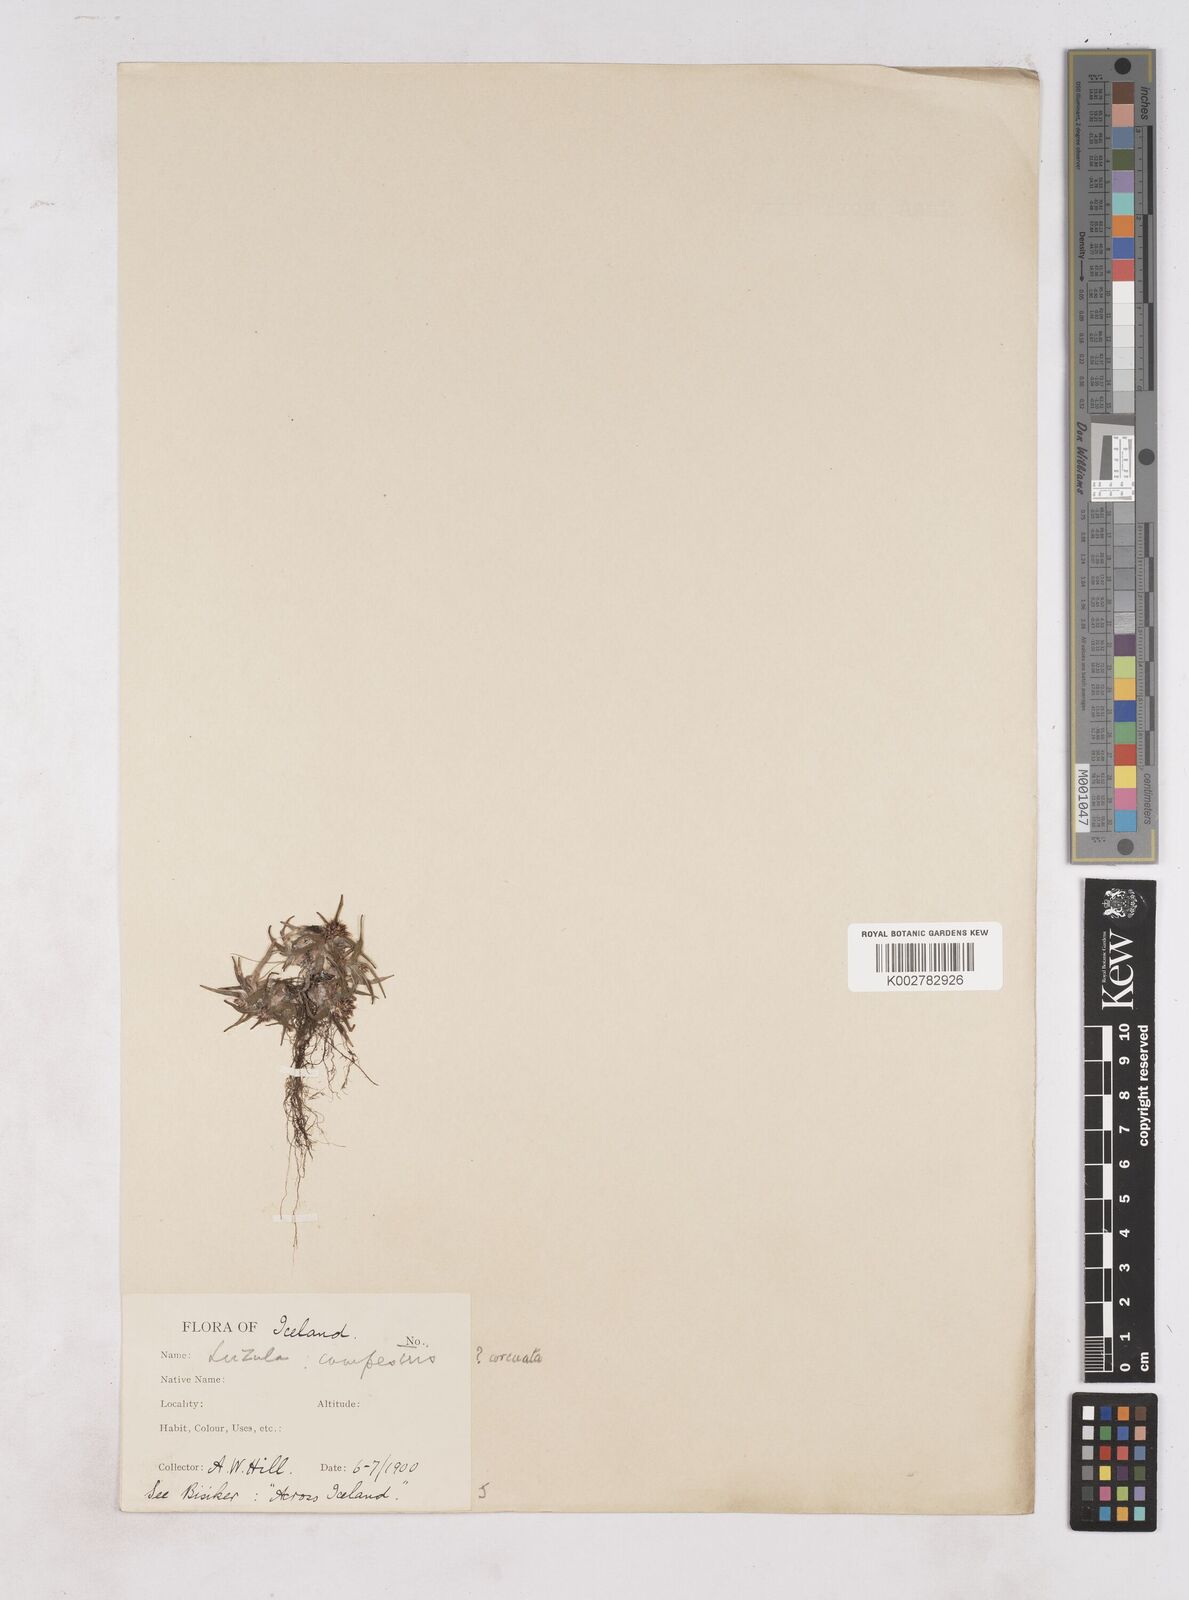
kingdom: Plantae
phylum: Tracheophyta
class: Liliopsida
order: Poales
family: Juncaceae
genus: Luzula
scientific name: Luzula campestris
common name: Field wood-rush
